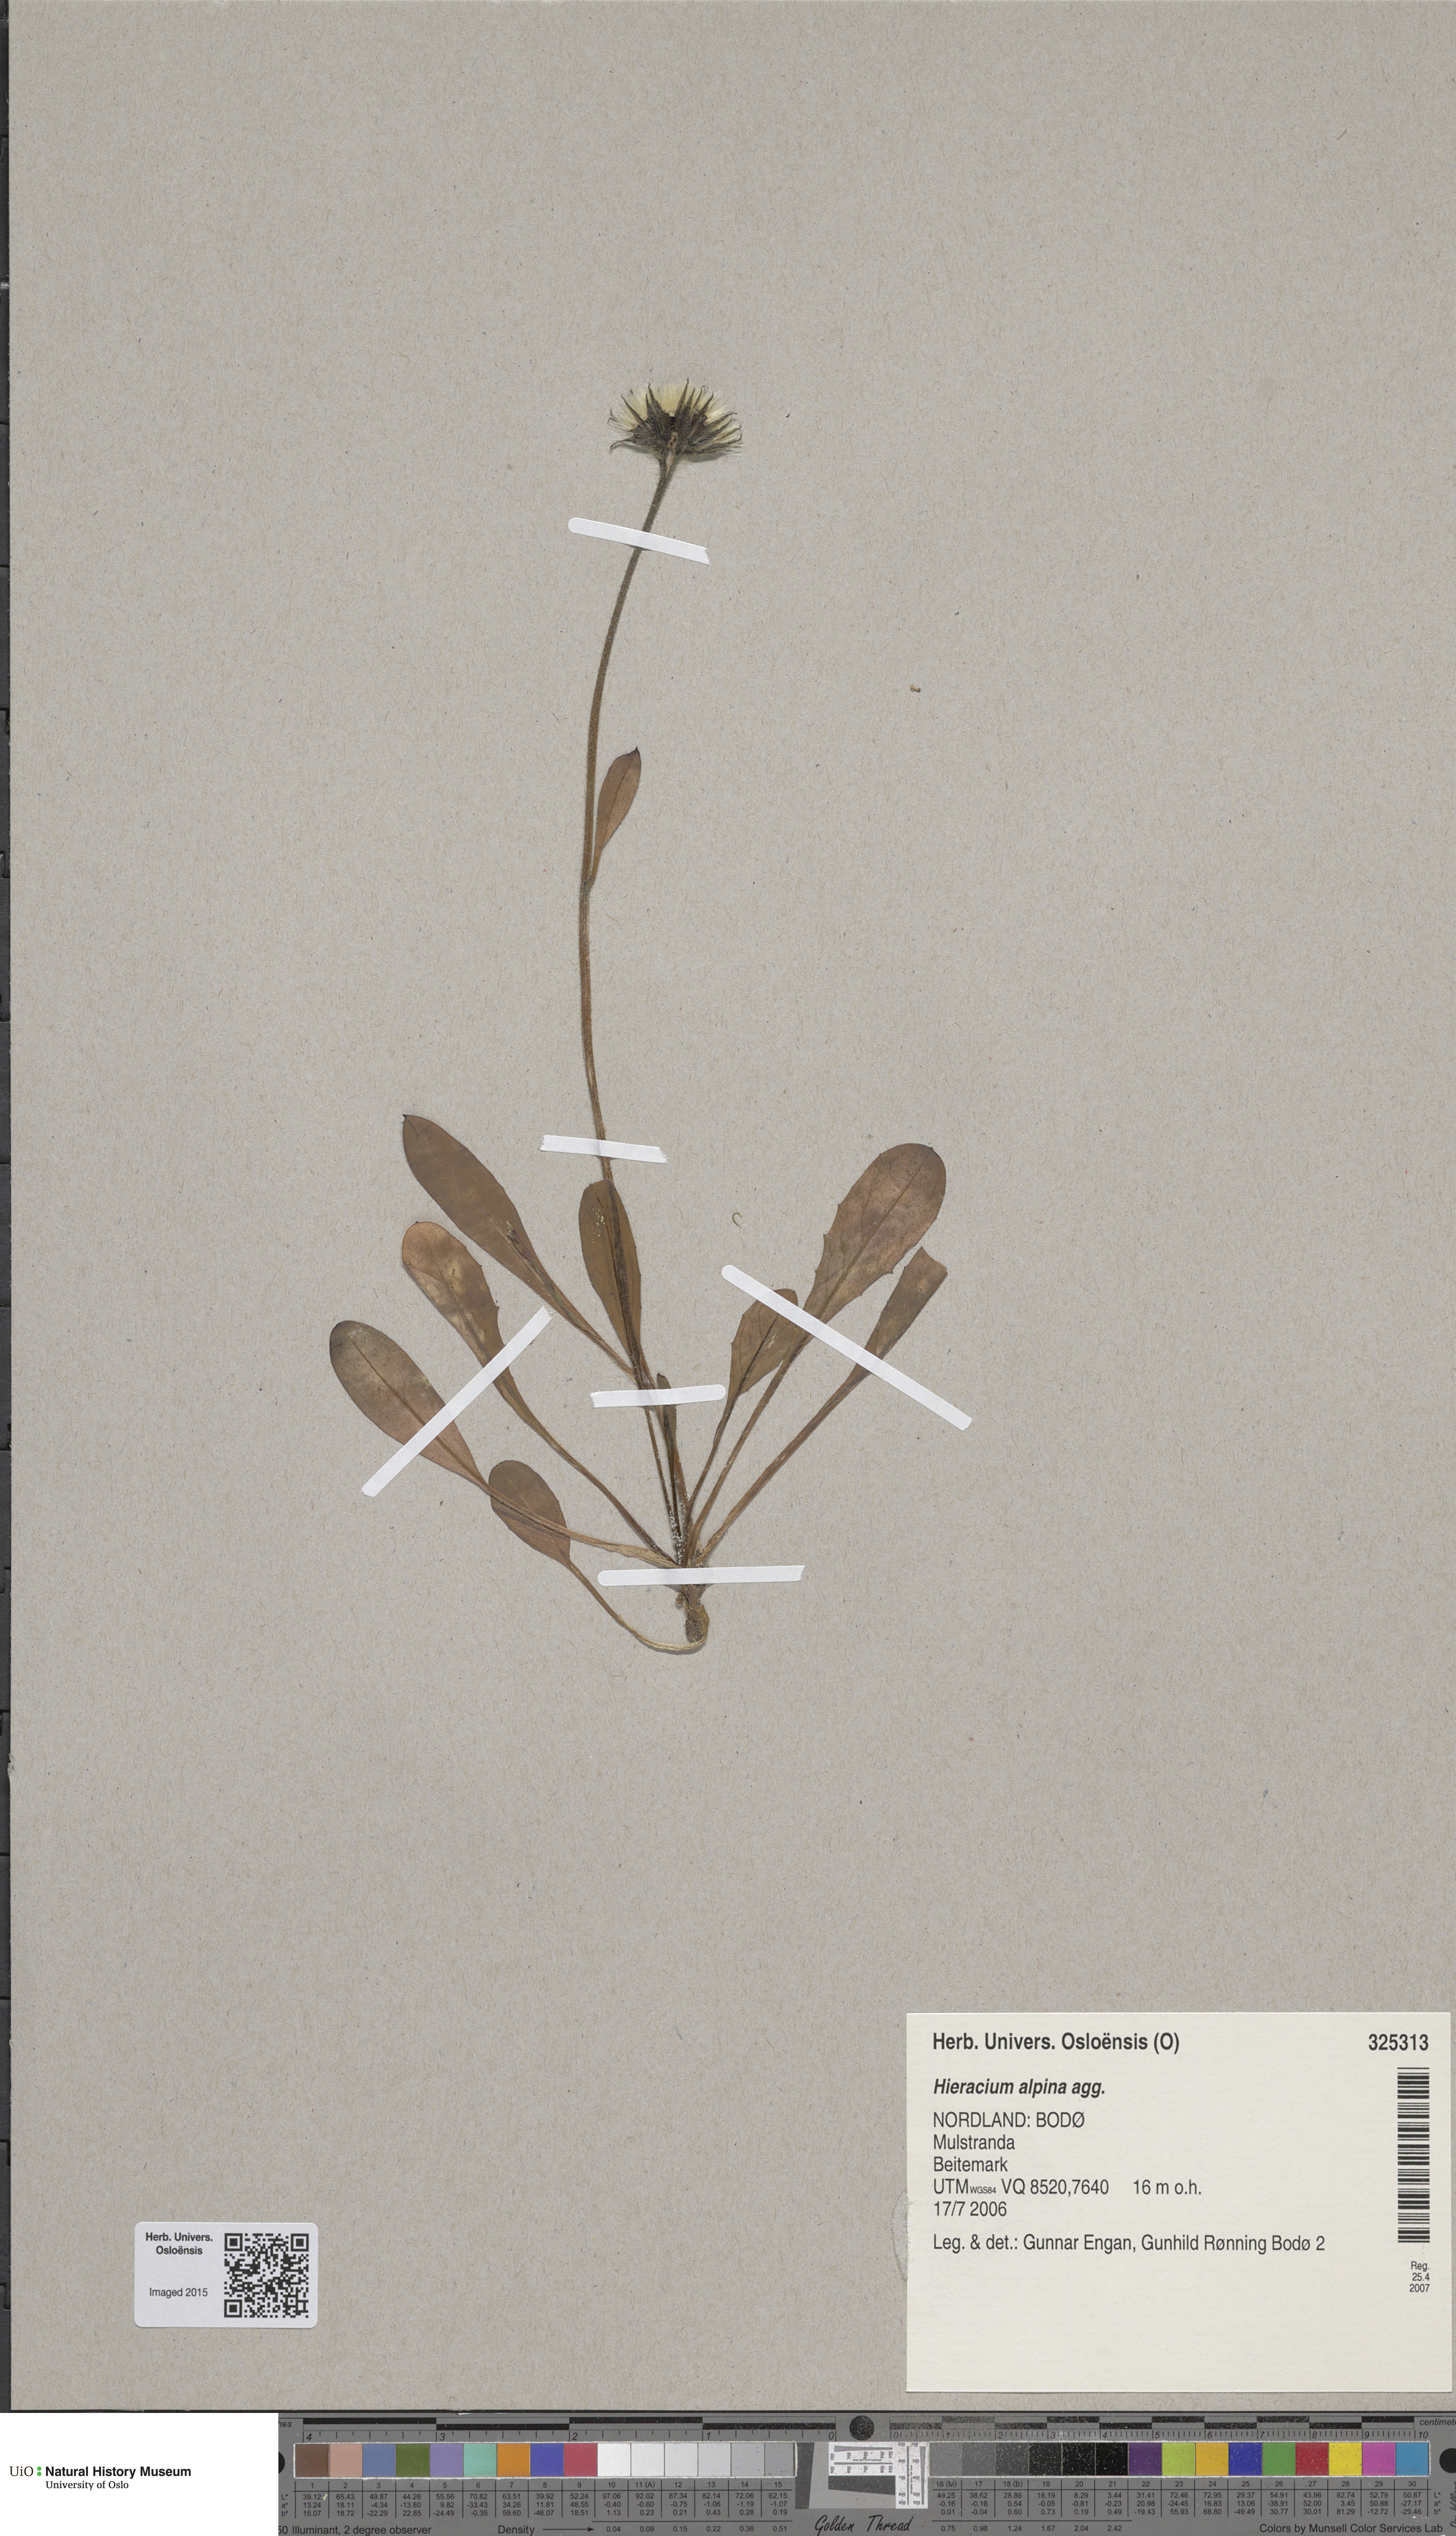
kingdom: Plantae
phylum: Tracheophyta
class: Magnoliopsida
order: Asterales
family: Asteraceae
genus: Hieracium
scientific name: Hieracium alpinum
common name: Alpine hawkweed
